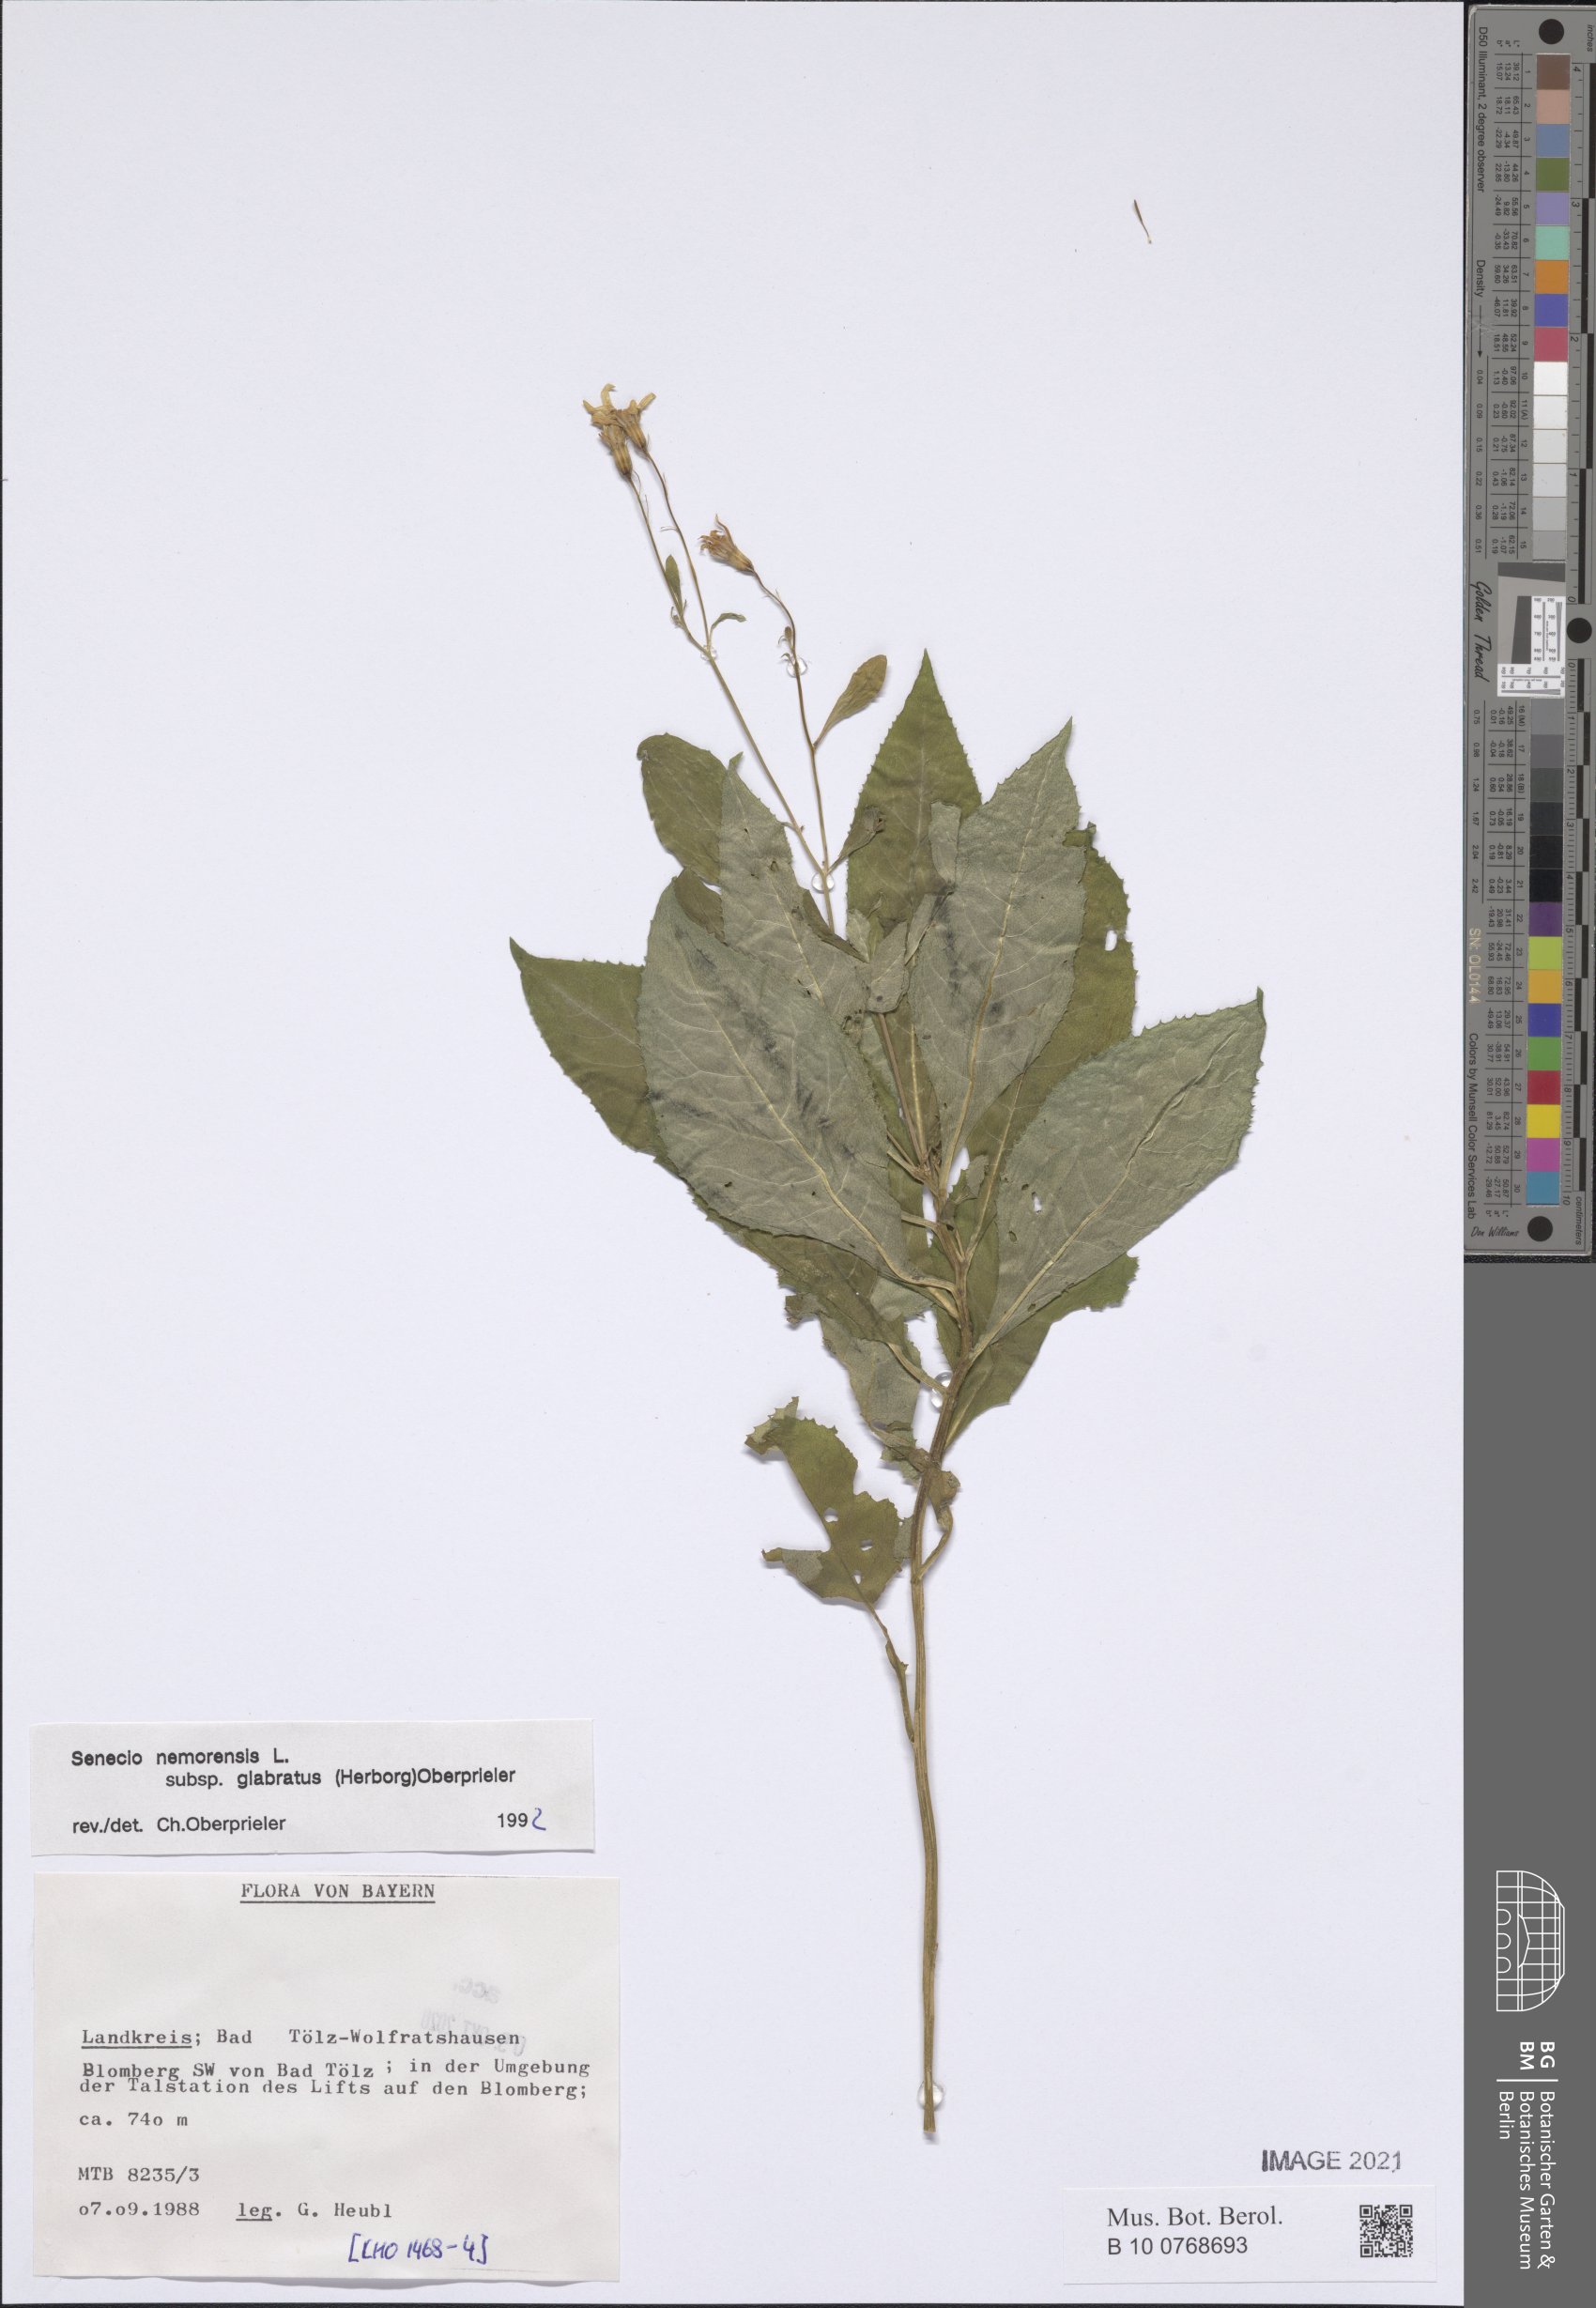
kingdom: Plantae
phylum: Tracheophyta
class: Magnoliopsida
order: Asterales
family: Asteraceae
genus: Senecio
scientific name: Senecio germanicus
